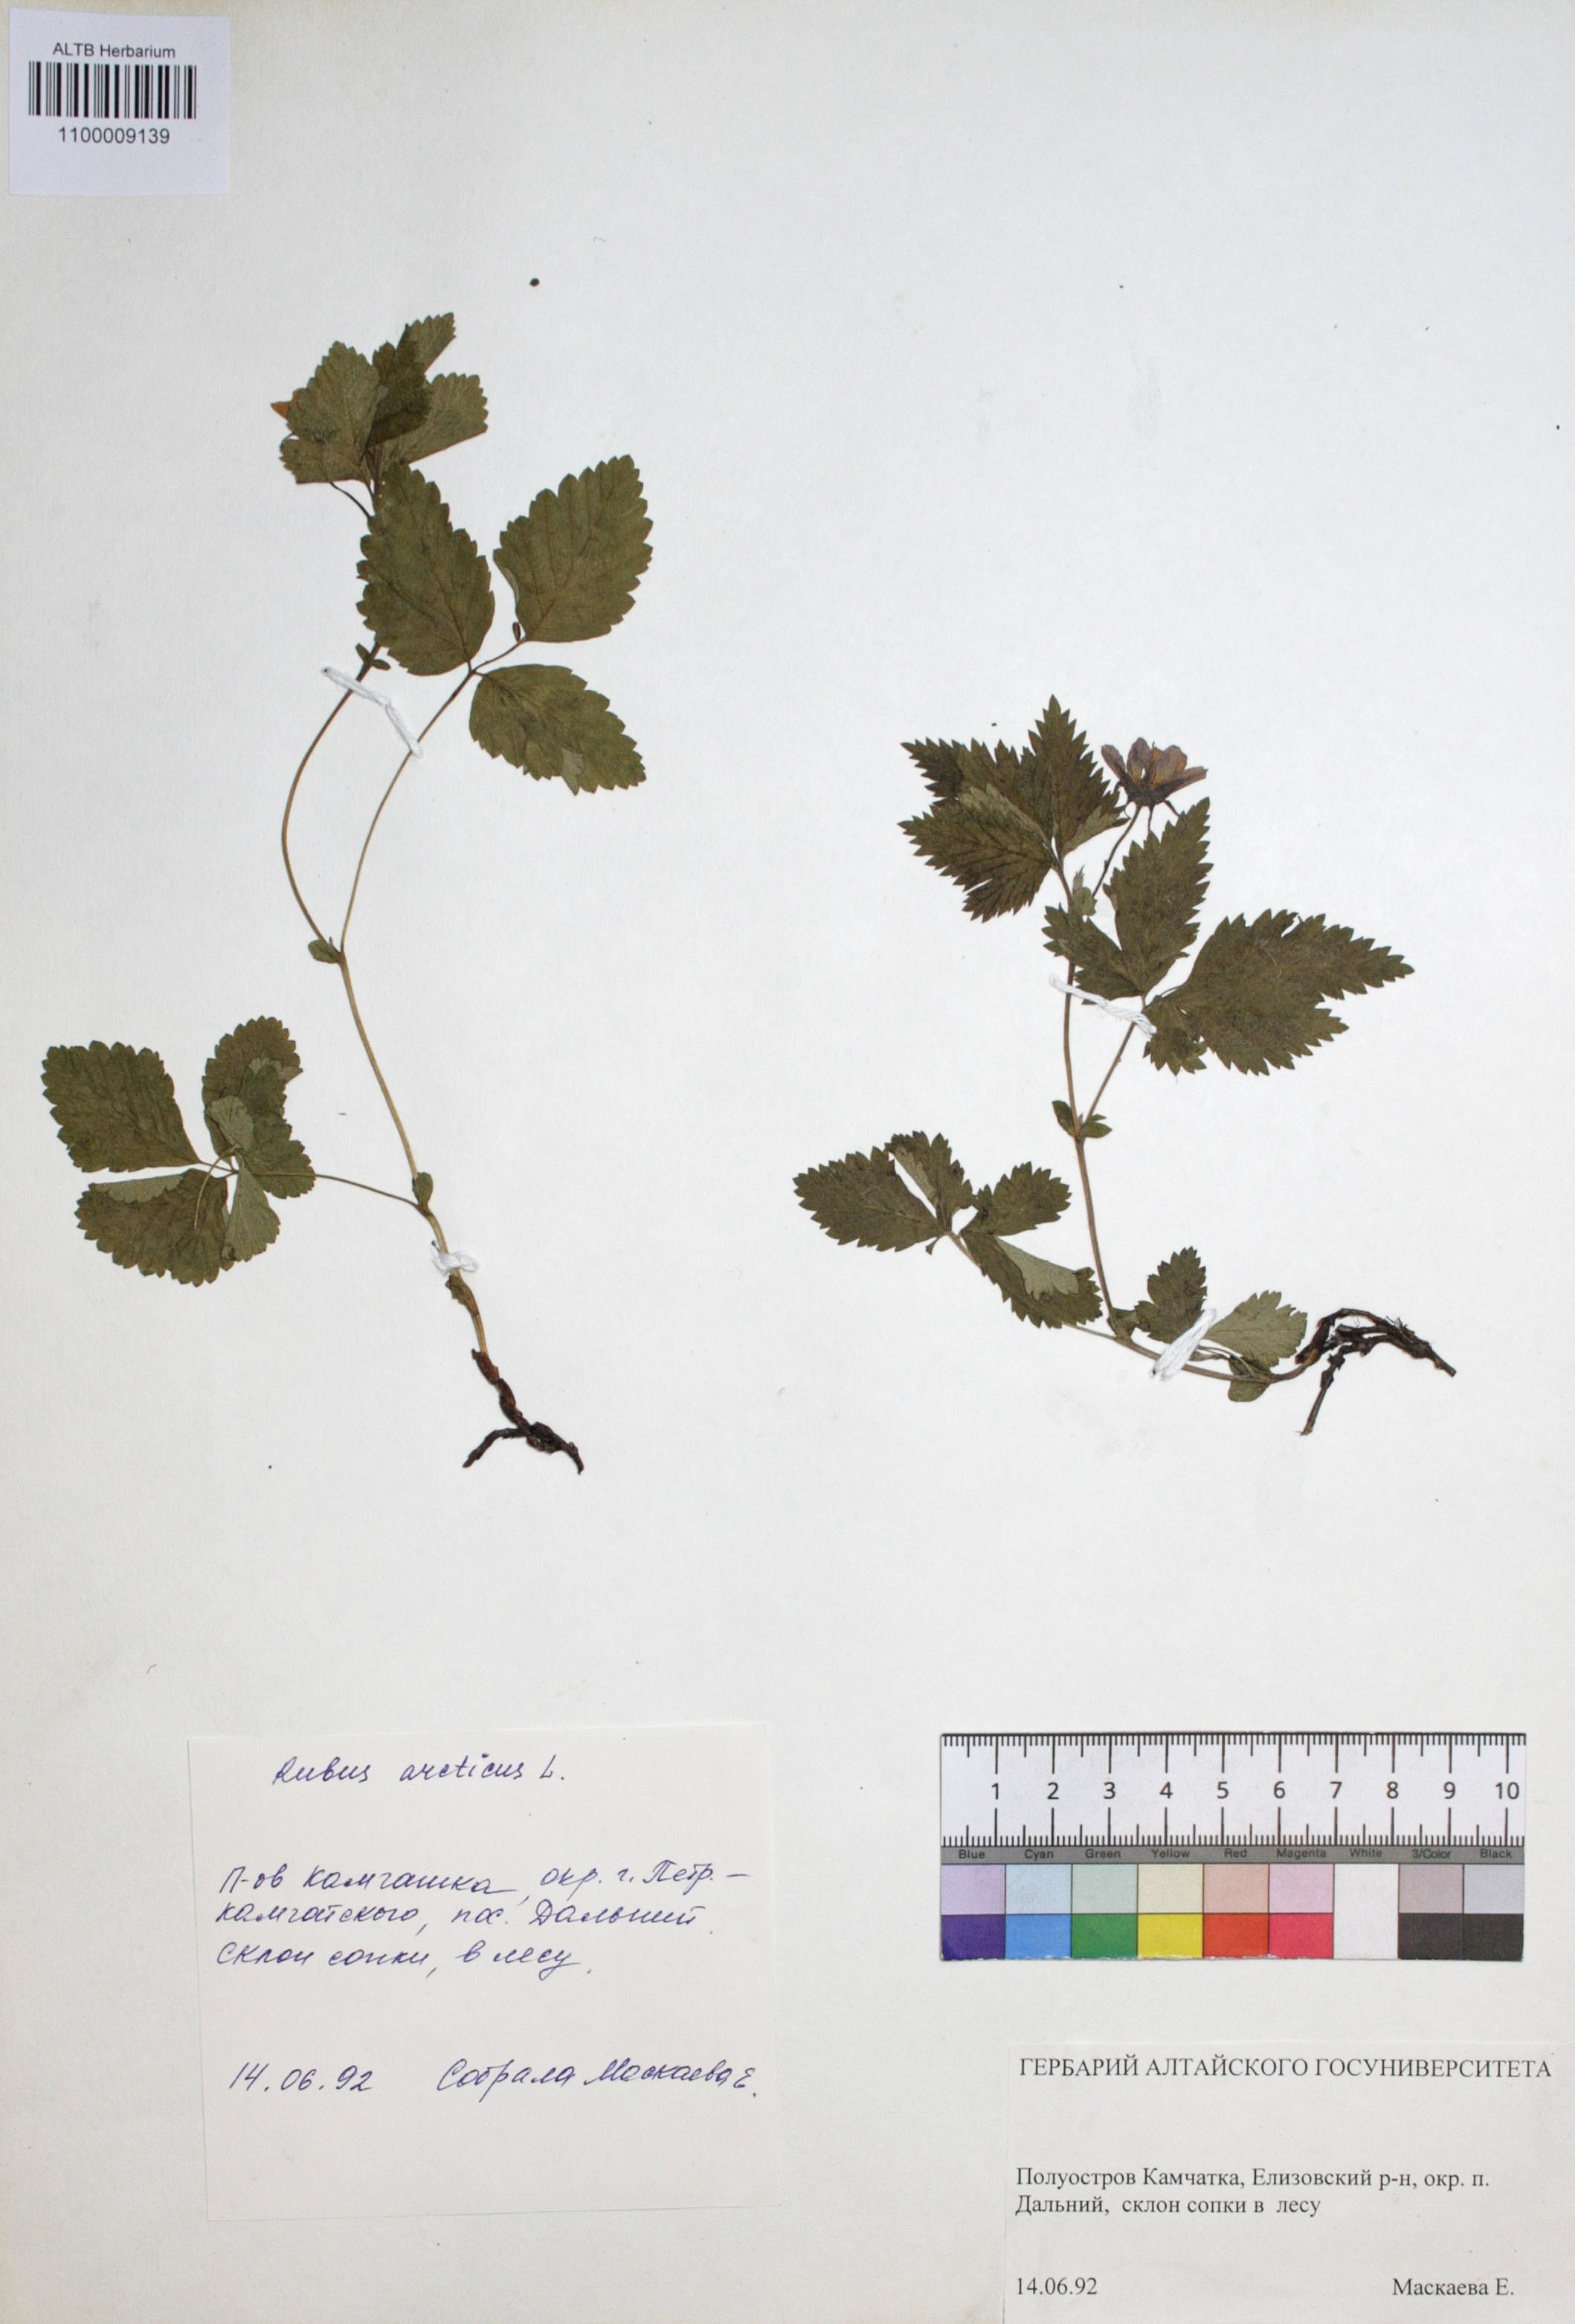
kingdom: Plantae
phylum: Tracheophyta
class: Magnoliopsida
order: Rosales
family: Rosaceae
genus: Rubus
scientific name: Rubus arcticus
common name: Arctic bramble
